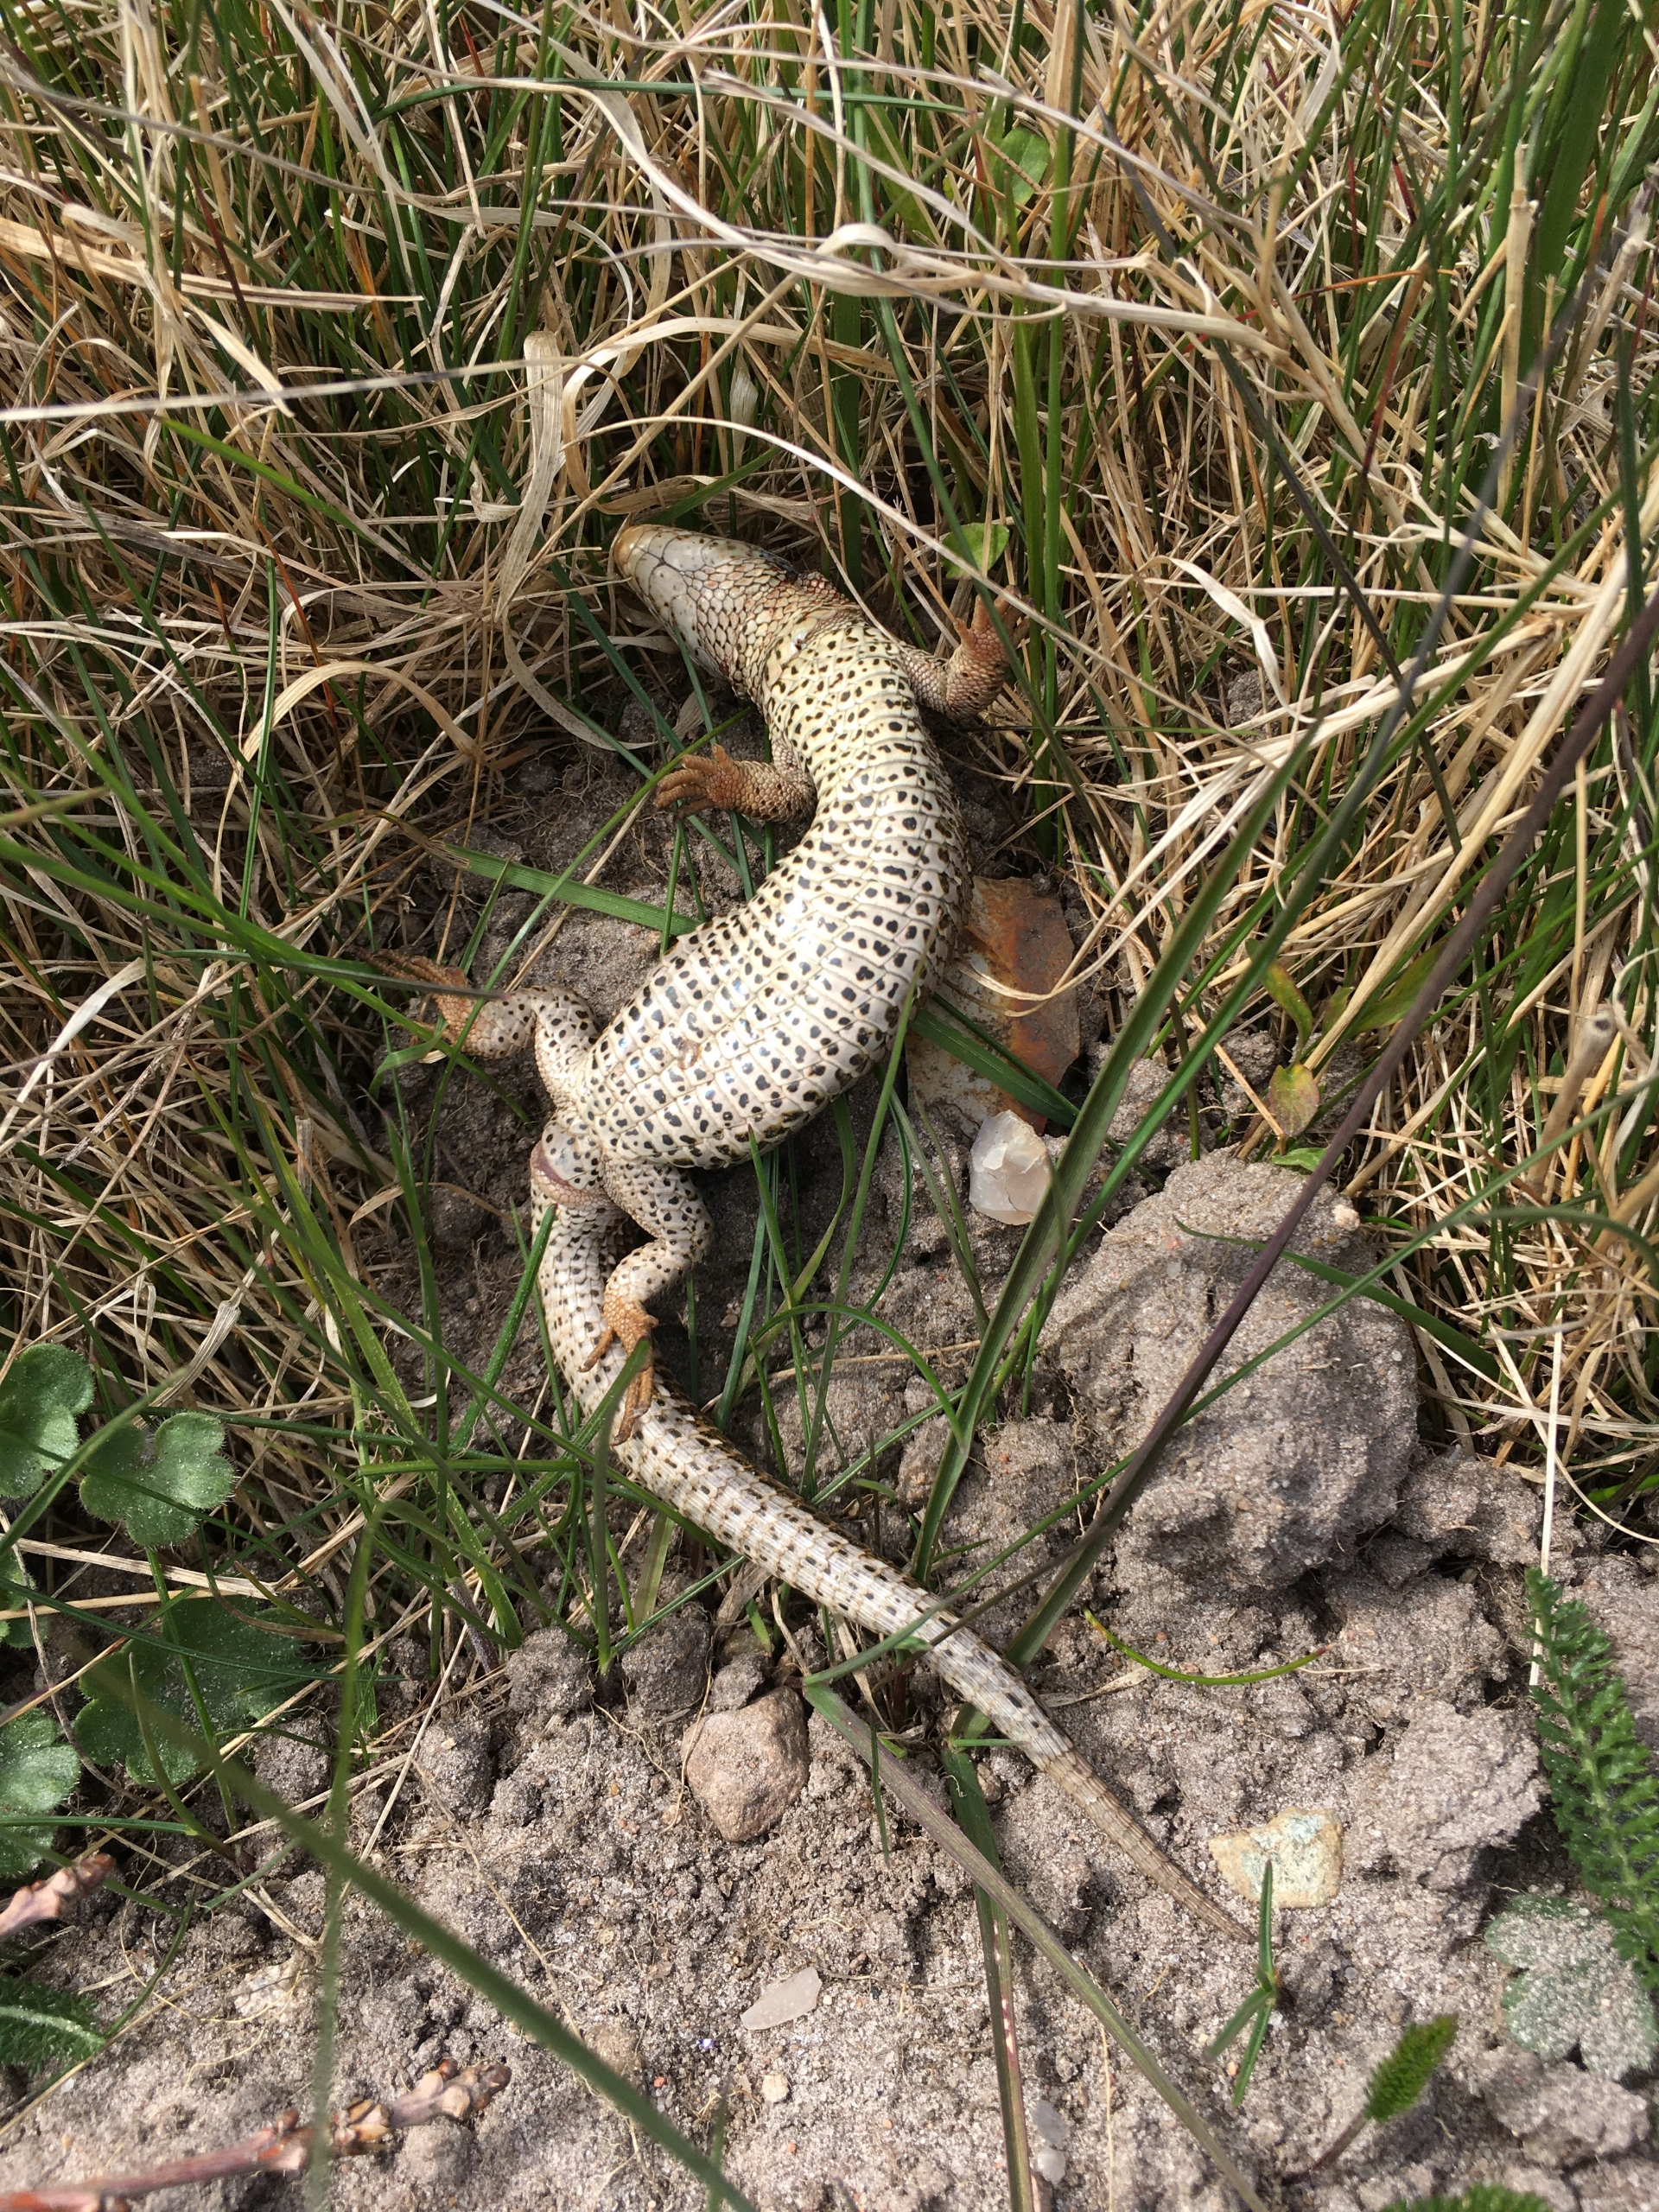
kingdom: Animalia
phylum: Chordata
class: Squamata
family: Lacertidae
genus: Lacerta
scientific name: Lacerta agilis
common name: Markfirben
